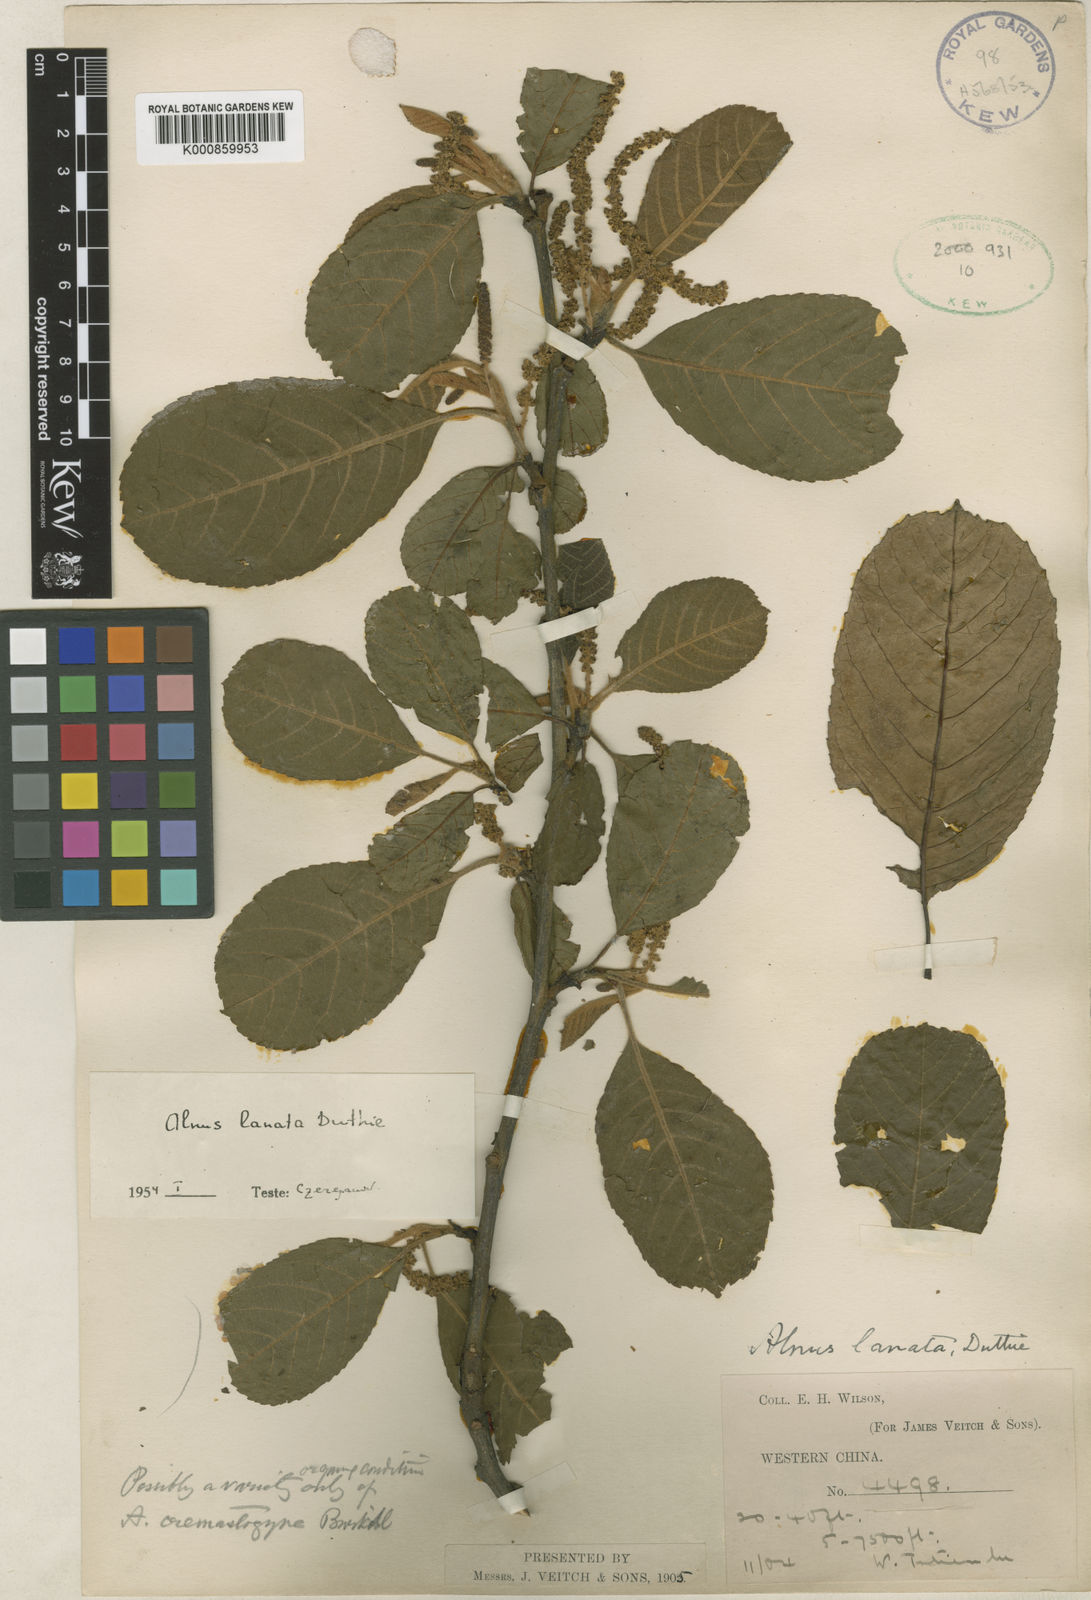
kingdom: Plantae
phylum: Tracheophyta
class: Magnoliopsida
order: Fagales
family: Betulaceae
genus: Alnus
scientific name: Alnus lanata
